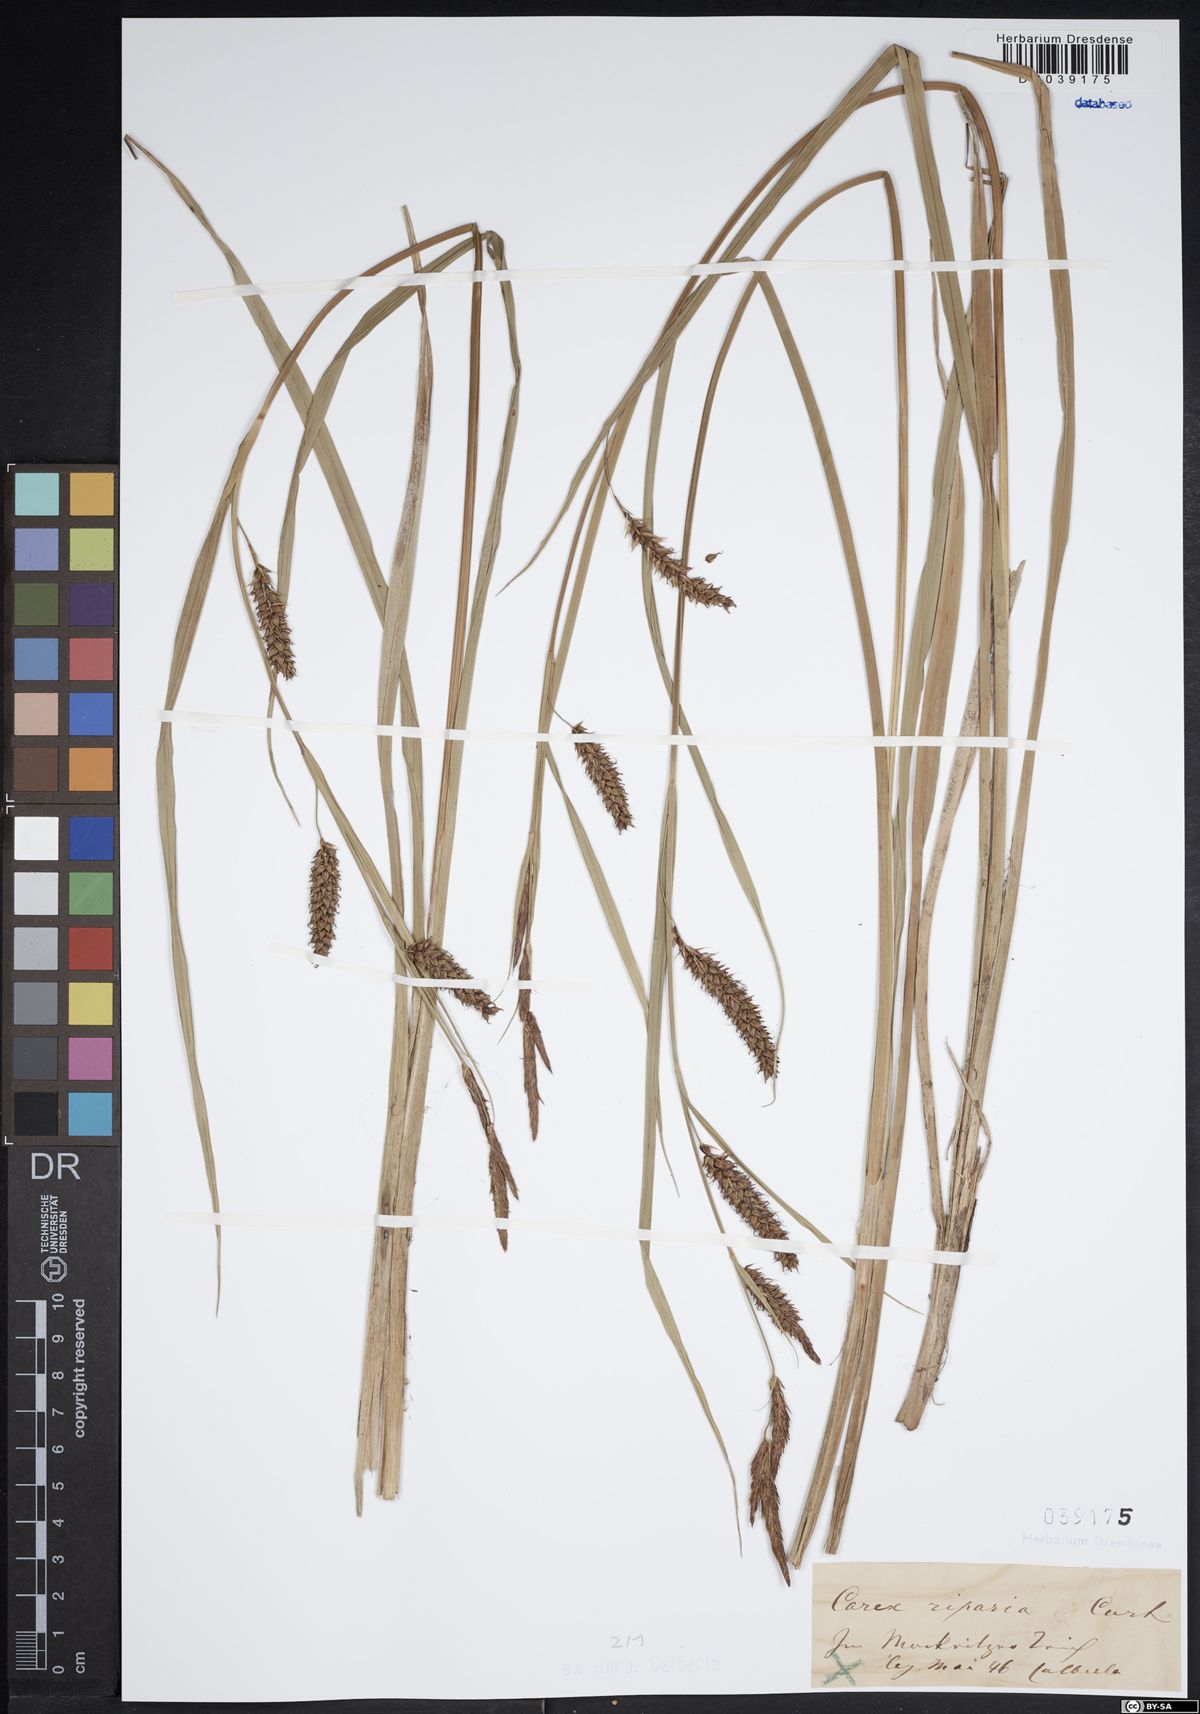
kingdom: Plantae
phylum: Tracheophyta
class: Liliopsida
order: Poales
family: Cyperaceae
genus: Carex
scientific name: Carex riparia
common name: Greater pond-sedge
